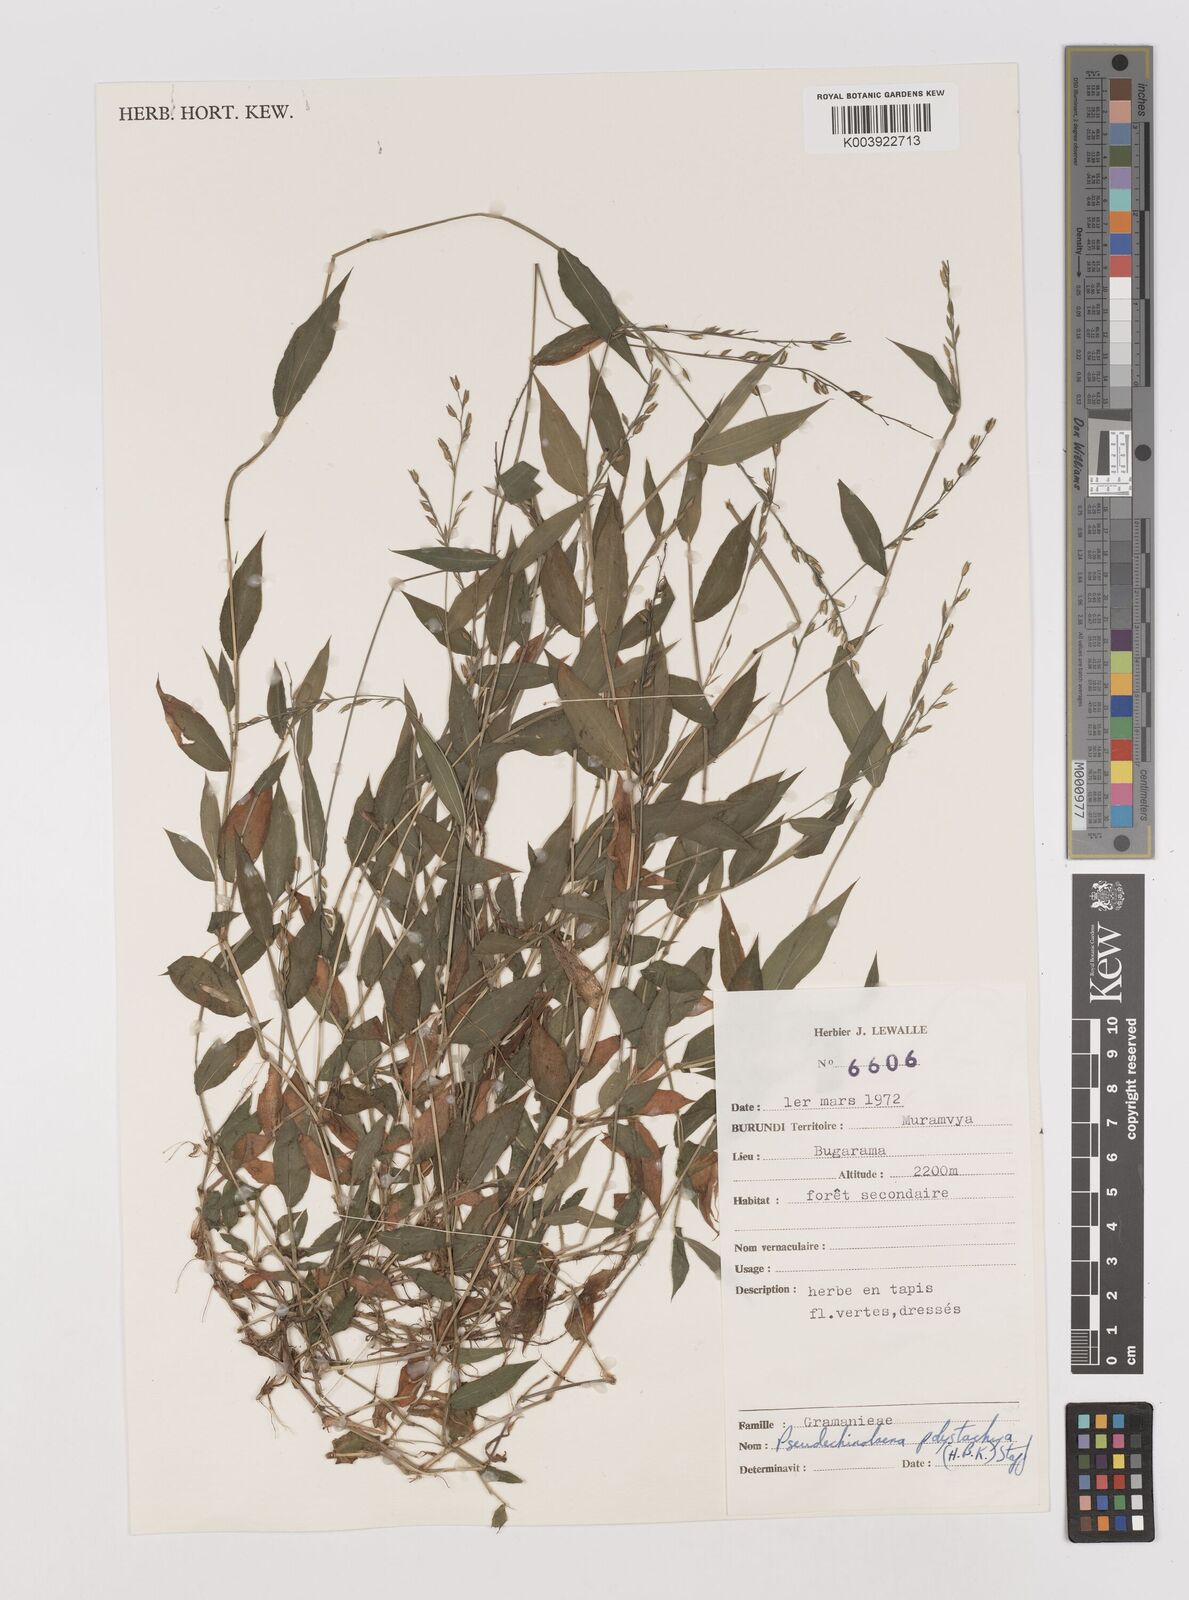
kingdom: Plantae
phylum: Tracheophyta
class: Liliopsida
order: Poales
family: Poaceae
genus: Pseudechinolaena
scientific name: Pseudechinolaena polystachya
